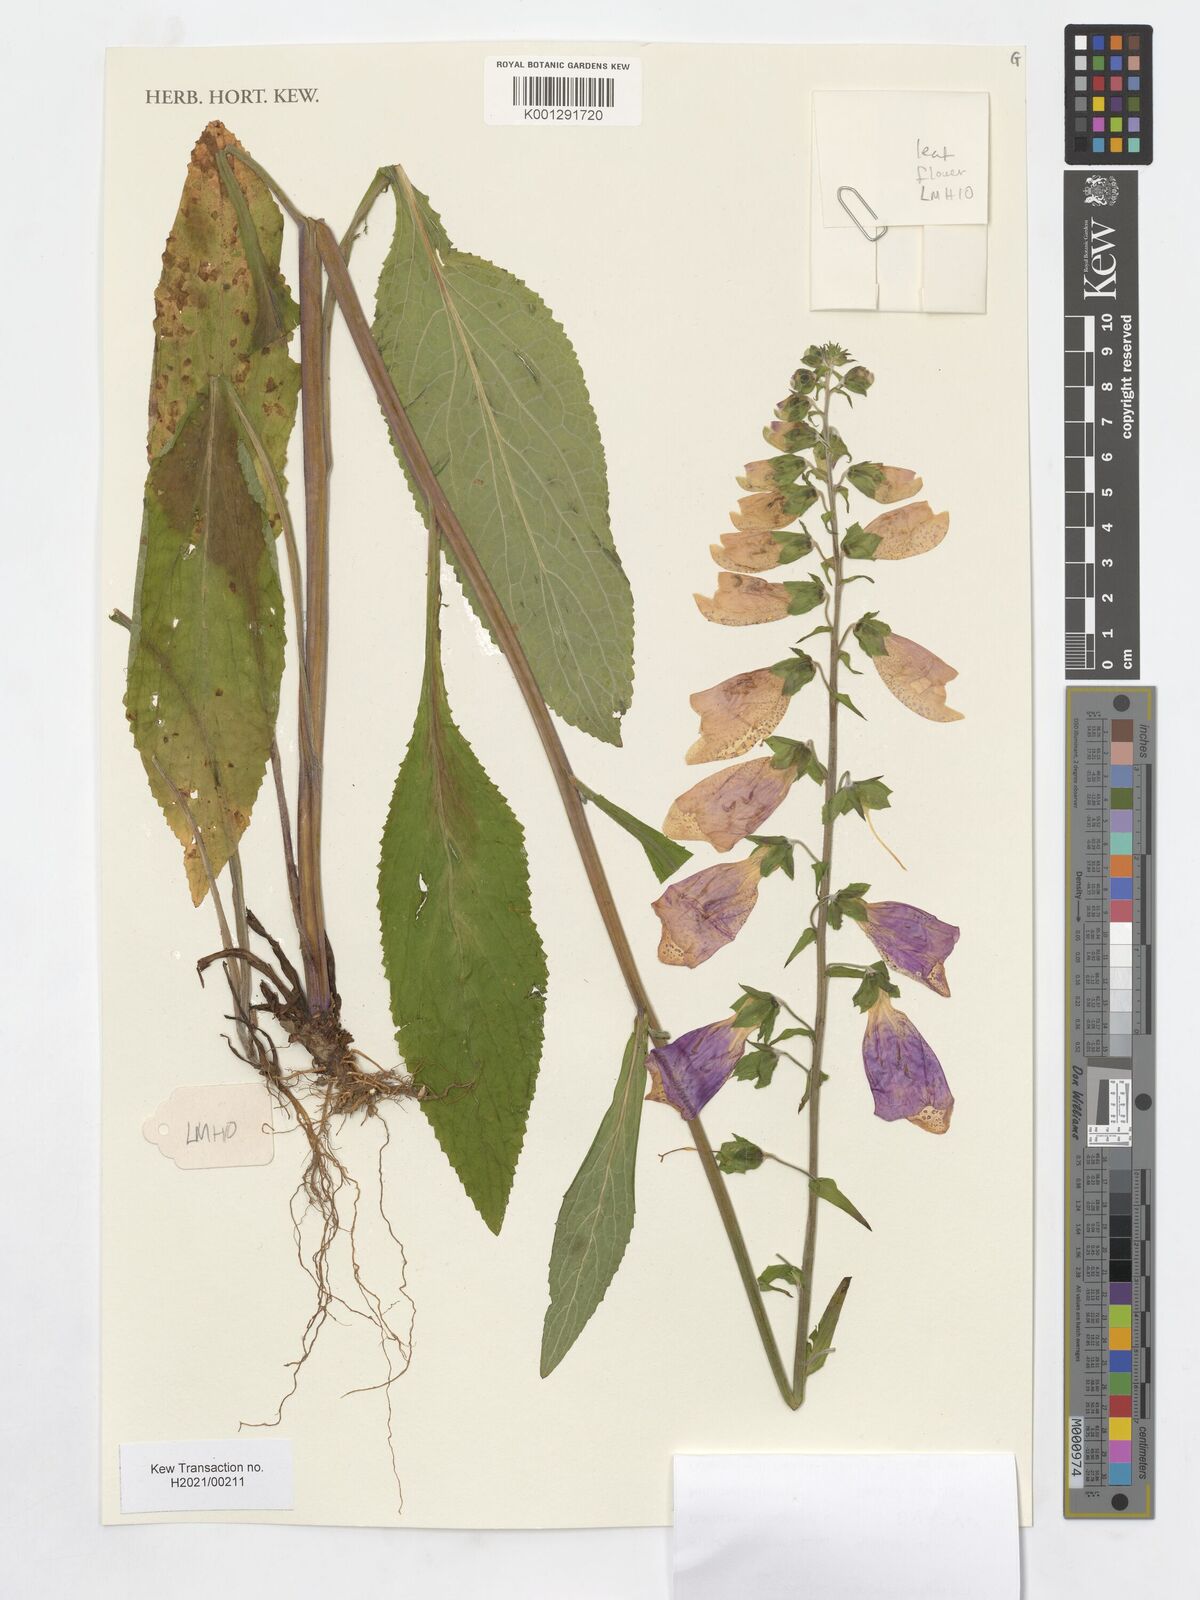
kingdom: Plantae
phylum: Tracheophyta
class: Magnoliopsida
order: Lamiales
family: Plantaginaceae
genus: Digitalis
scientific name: Digitalis purpurea
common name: Foxglove
